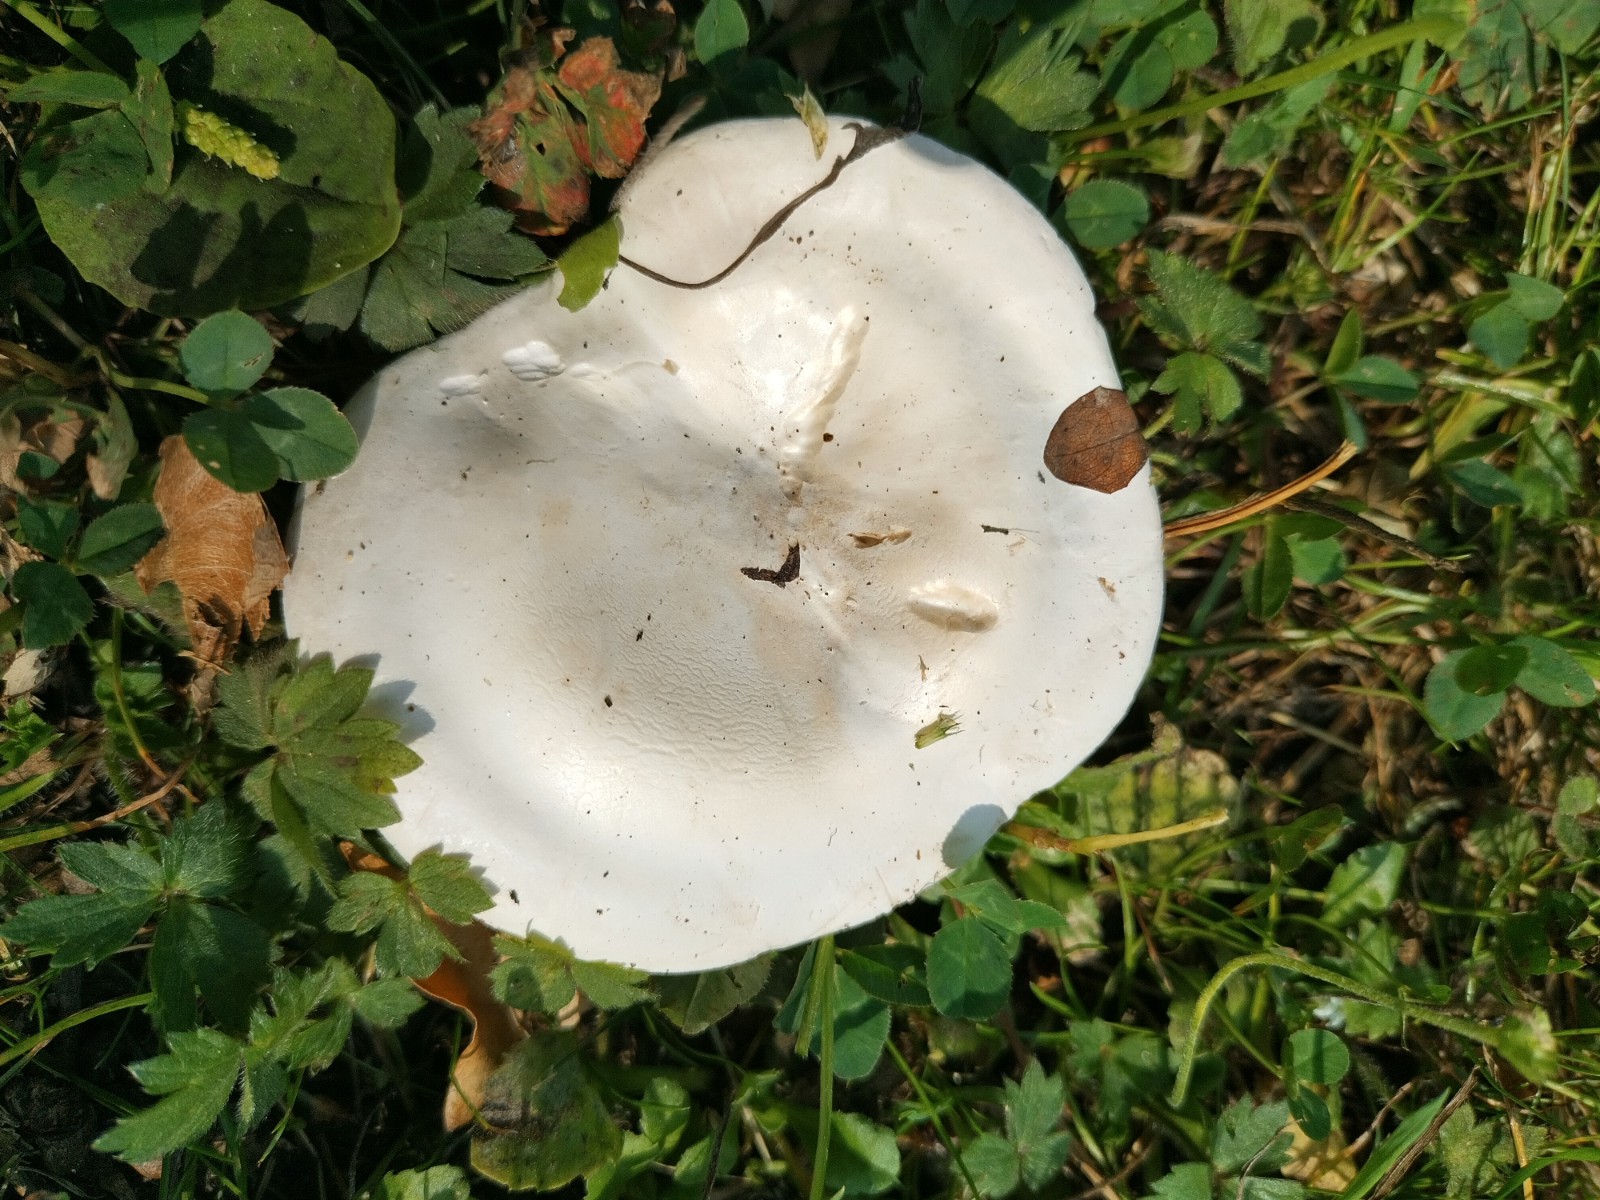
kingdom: Fungi
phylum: Basidiomycota
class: Agaricomycetes
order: Agaricales
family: Entolomataceae
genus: Clitopilus
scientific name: Clitopilus prunulus
